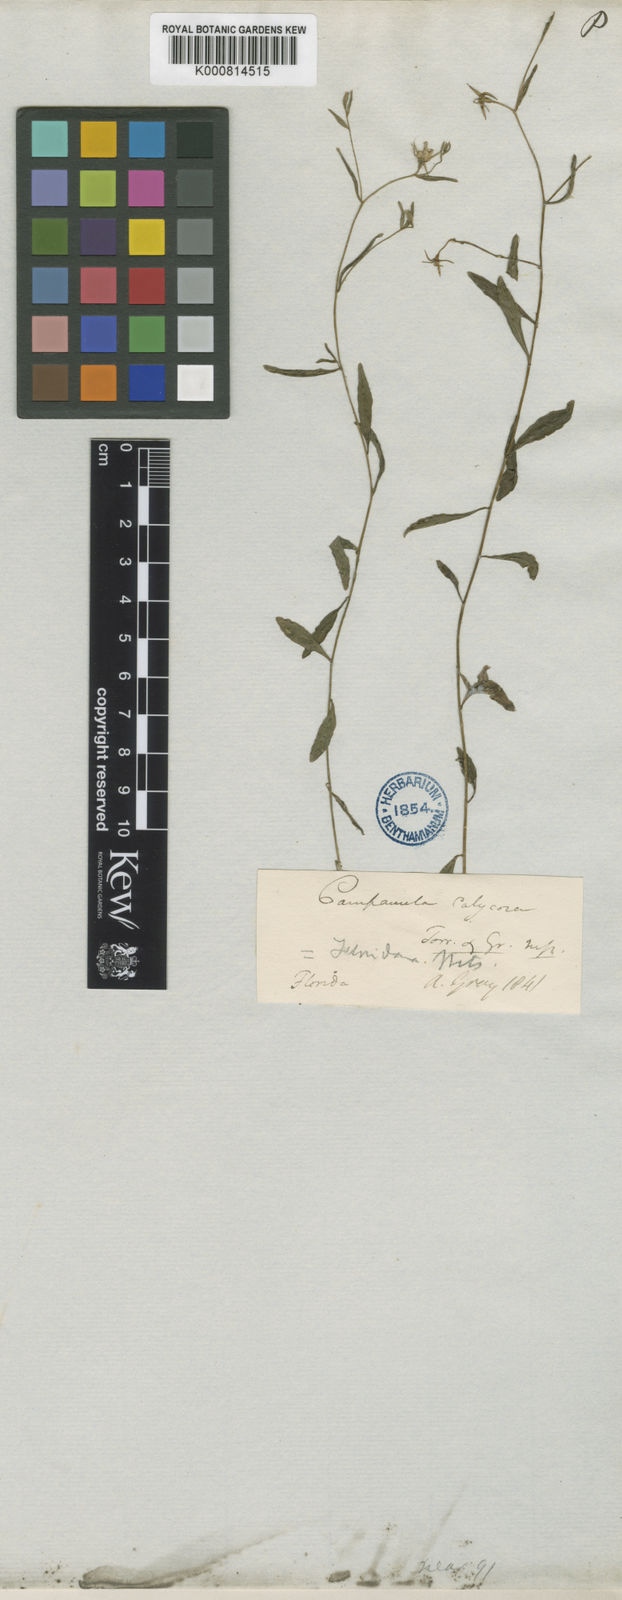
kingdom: Plantae
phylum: Tracheophyta
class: Magnoliopsida
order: Asterales
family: Campanulaceae
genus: Rotanthella
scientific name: Rotanthella floridana
